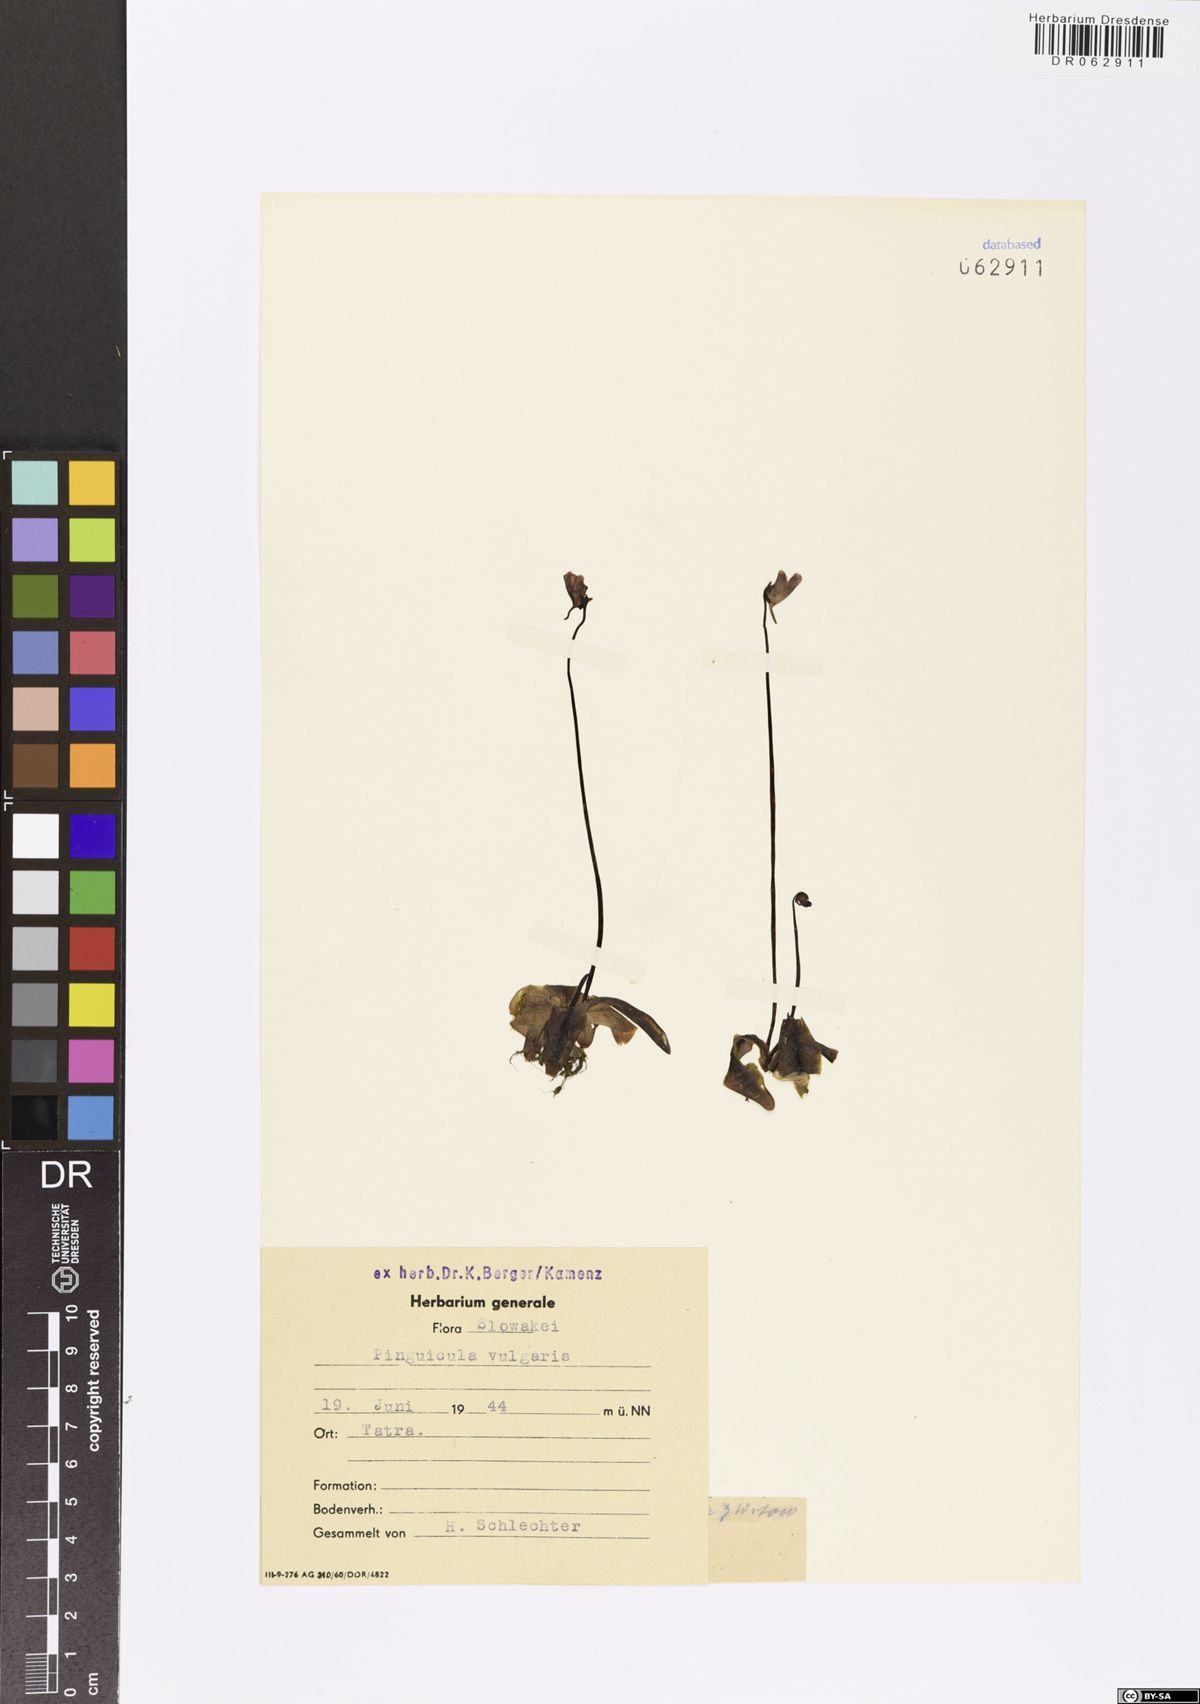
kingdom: Plantae
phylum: Tracheophyta
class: Magnoliopsida
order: Lamiales
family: Lentibulariaceae
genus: Pinguicula
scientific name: Pinguicula vulgaris
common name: Common butterwort
